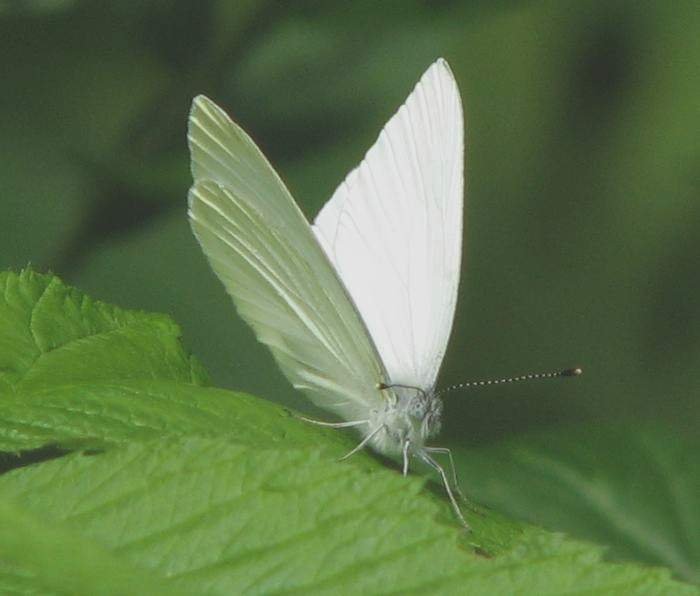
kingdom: Animalia
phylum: Arthropoda
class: Insecta
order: Lepidoptera
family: Pieridae
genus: Pieris
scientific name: Pieris oleracea
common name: Mustard White
